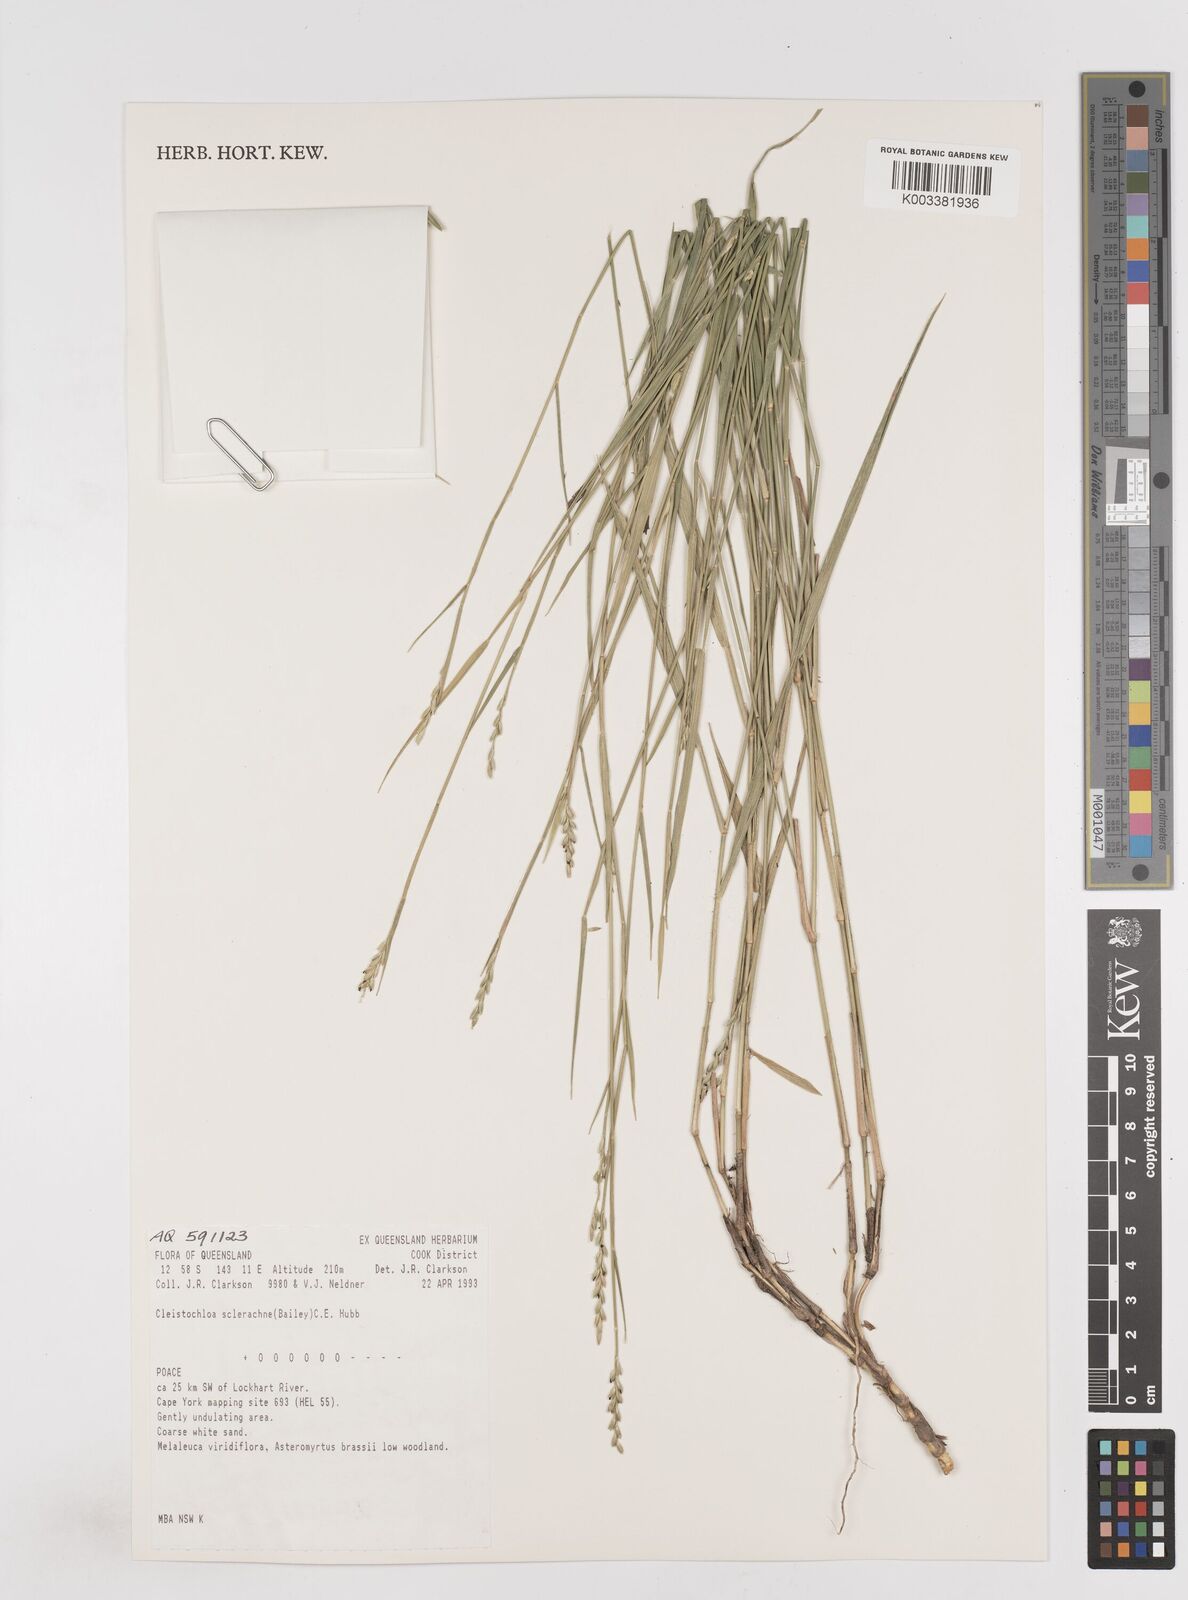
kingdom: Plantae
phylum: Tracheophyta
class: Liliopsida
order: Poales
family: Poaceae
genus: Cleistochloa
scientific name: Cleistochloa sclerachne
